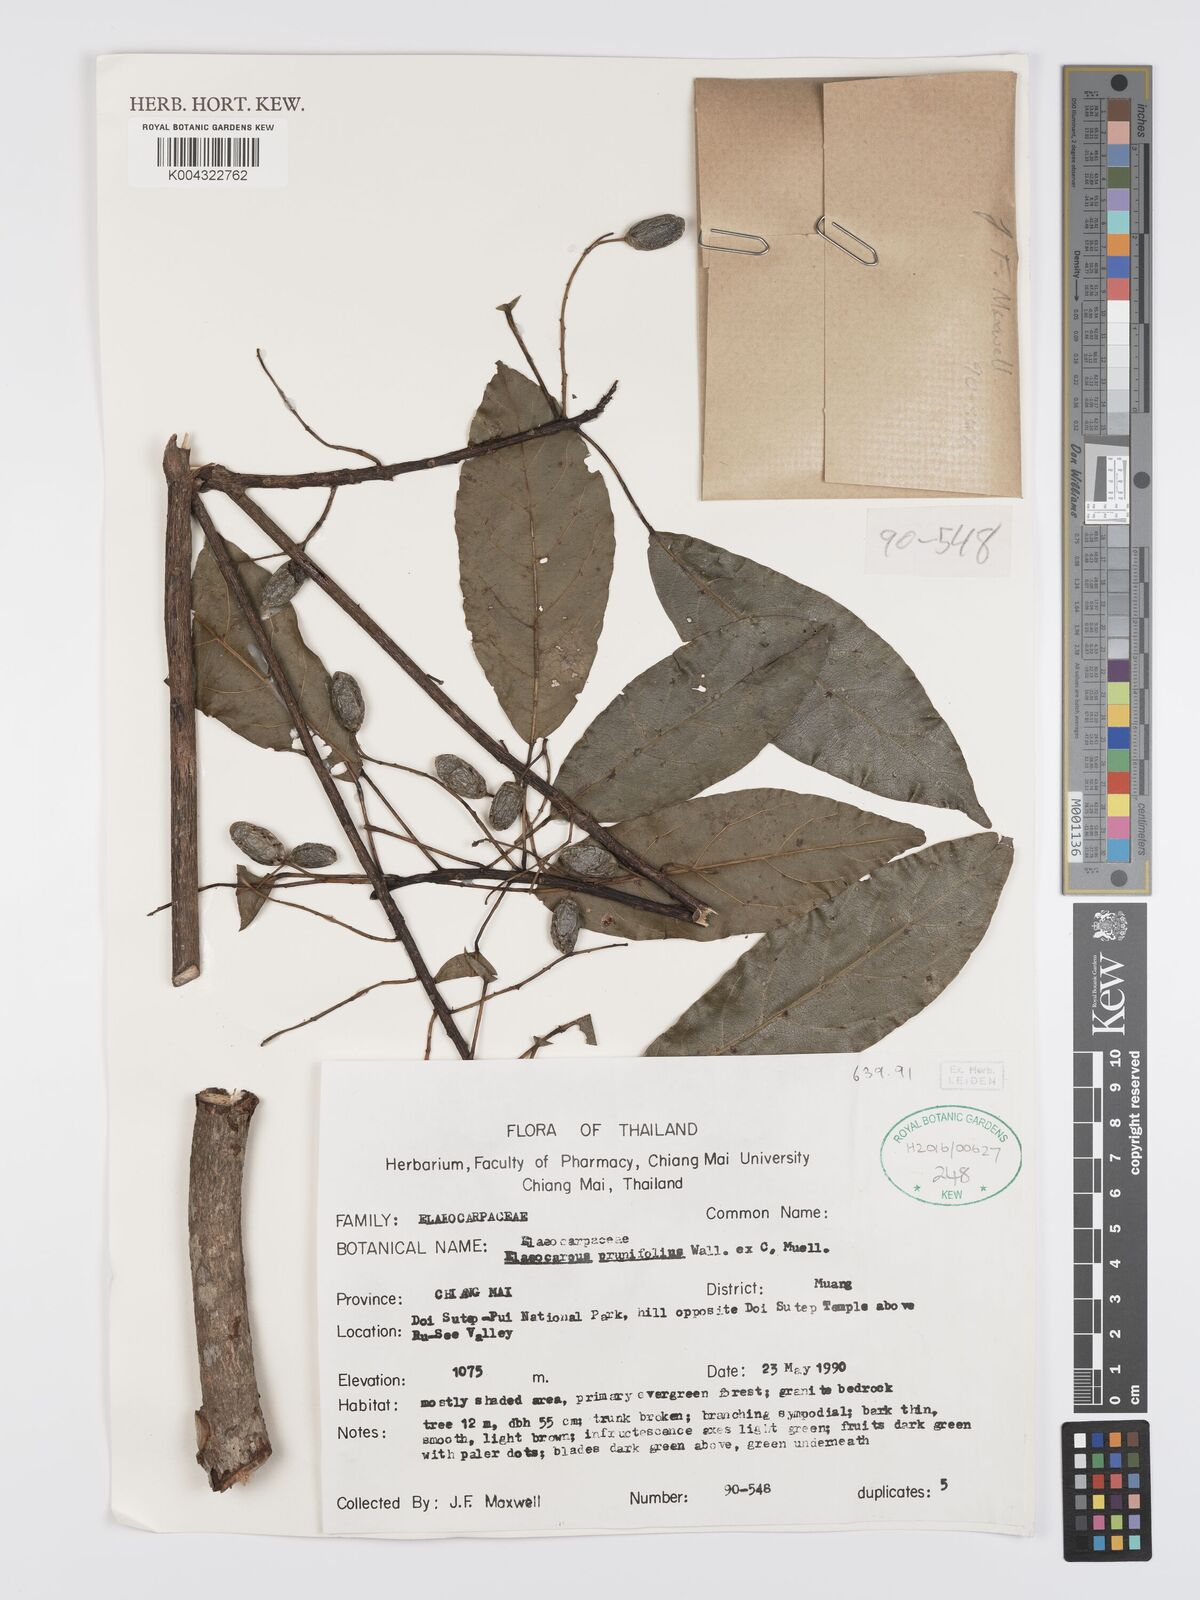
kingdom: Plantae
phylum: Tracheophyta
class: Magnoliopsida
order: Oxalidales
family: Elaeocarpaceae
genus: Elaeocarpus
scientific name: Elaeocarpus
